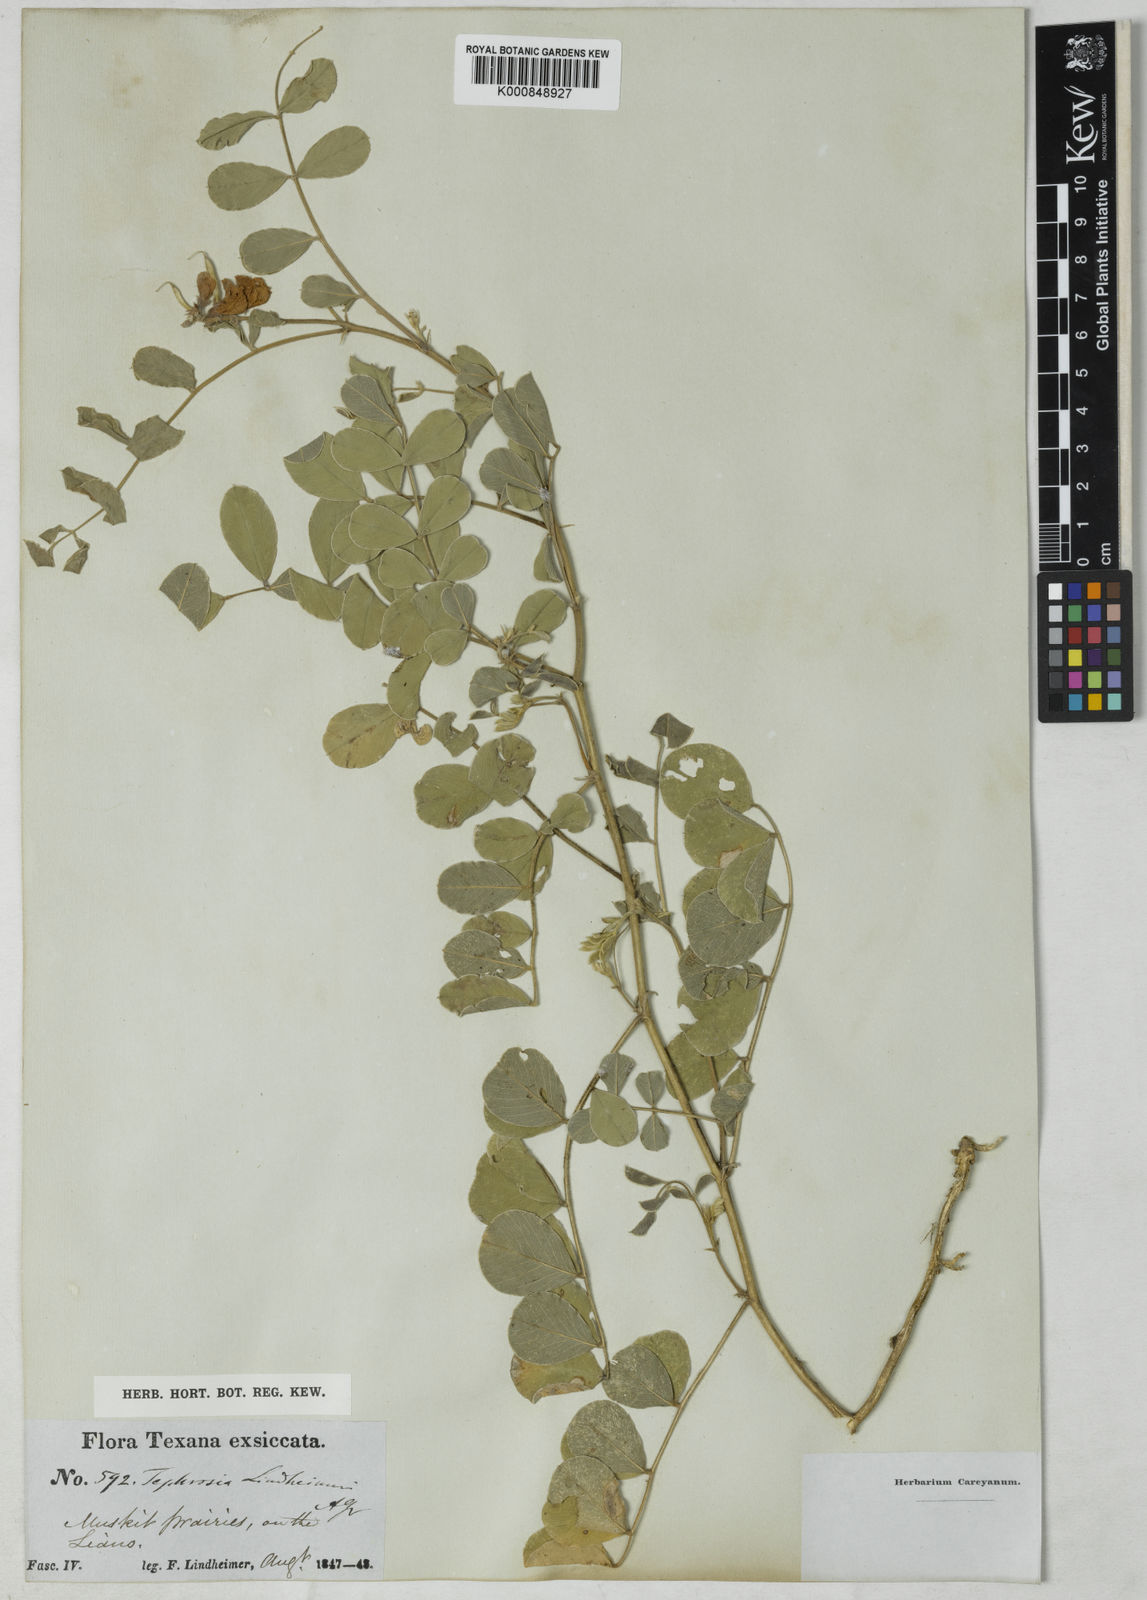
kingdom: Plantae
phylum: Tracheophyta
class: Magnoliopsida
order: Fabales
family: Fabaceae
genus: Tephrosia
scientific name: Tephrosia lindheimeri
